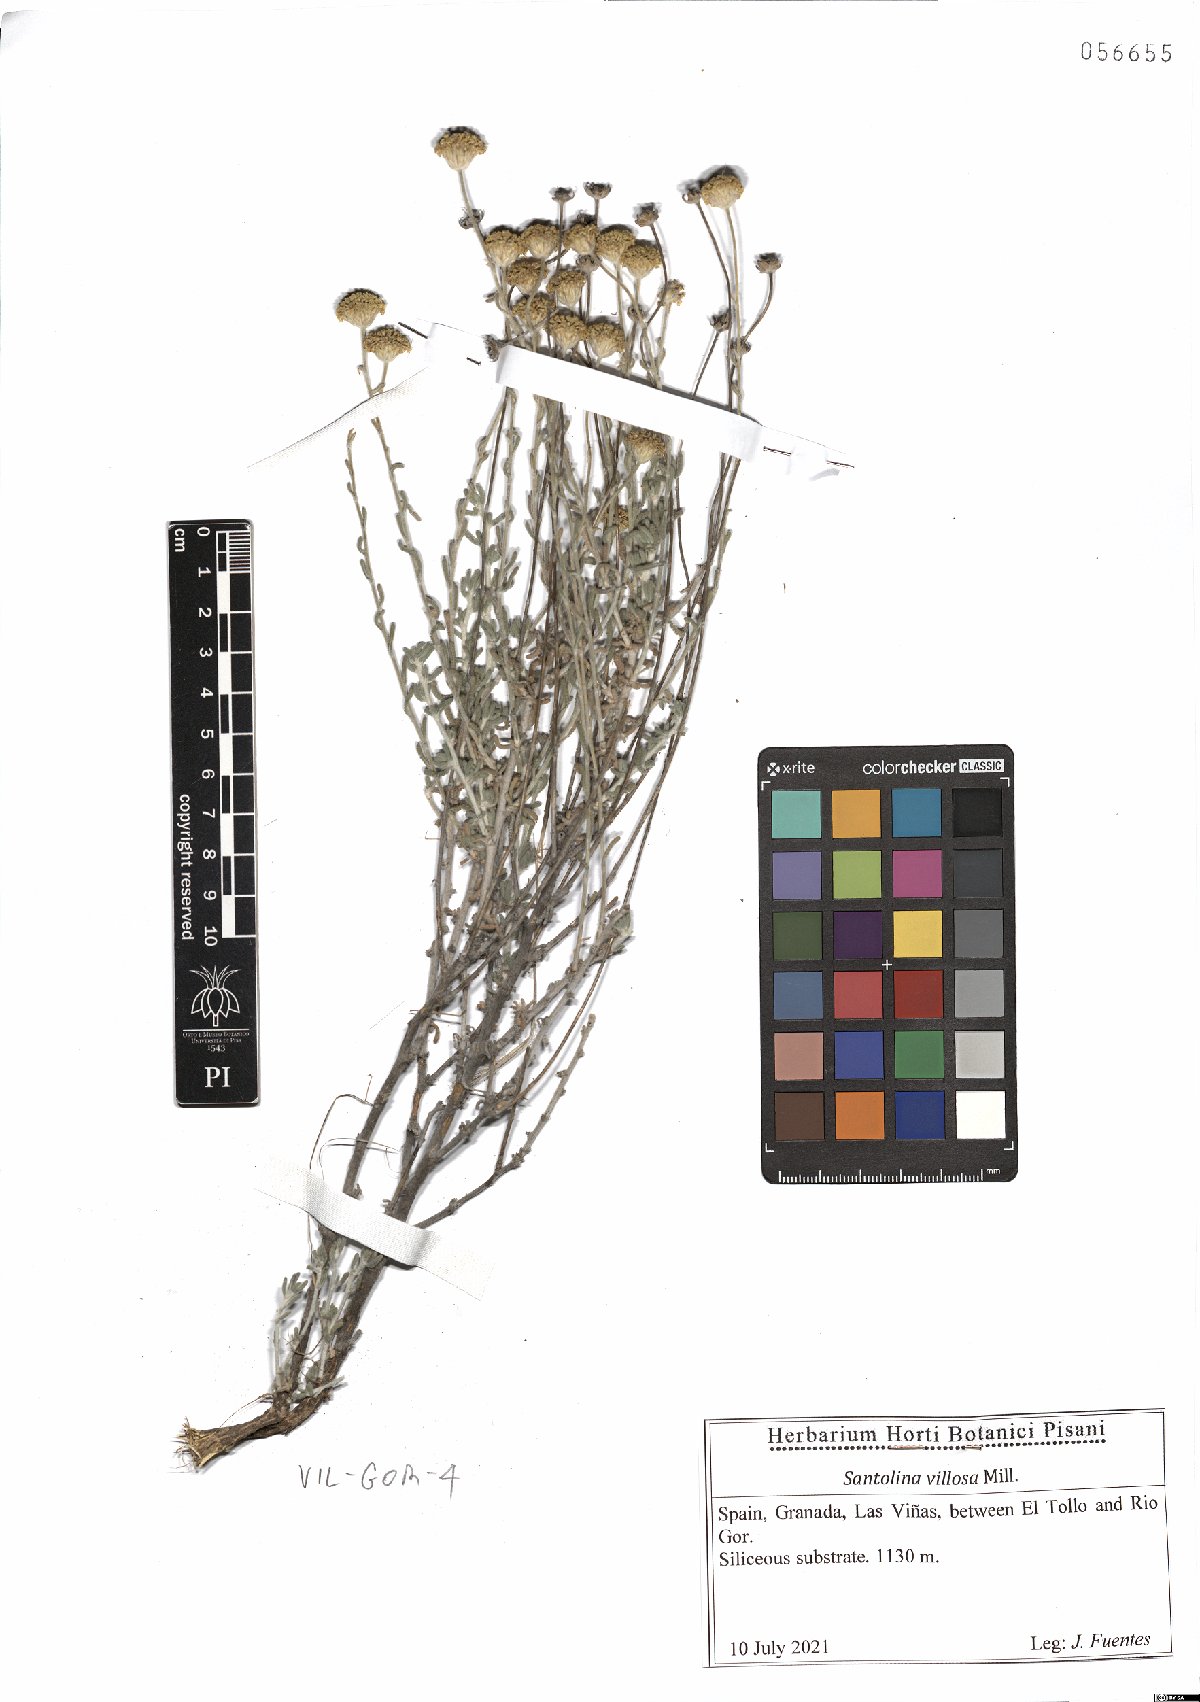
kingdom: Plantae
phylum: Tracheophyta
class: Magnoliopsida
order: Asterales
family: Asteraceae
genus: Santolina
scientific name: Santolina chamaecyparissus
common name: Lavender-cotton
